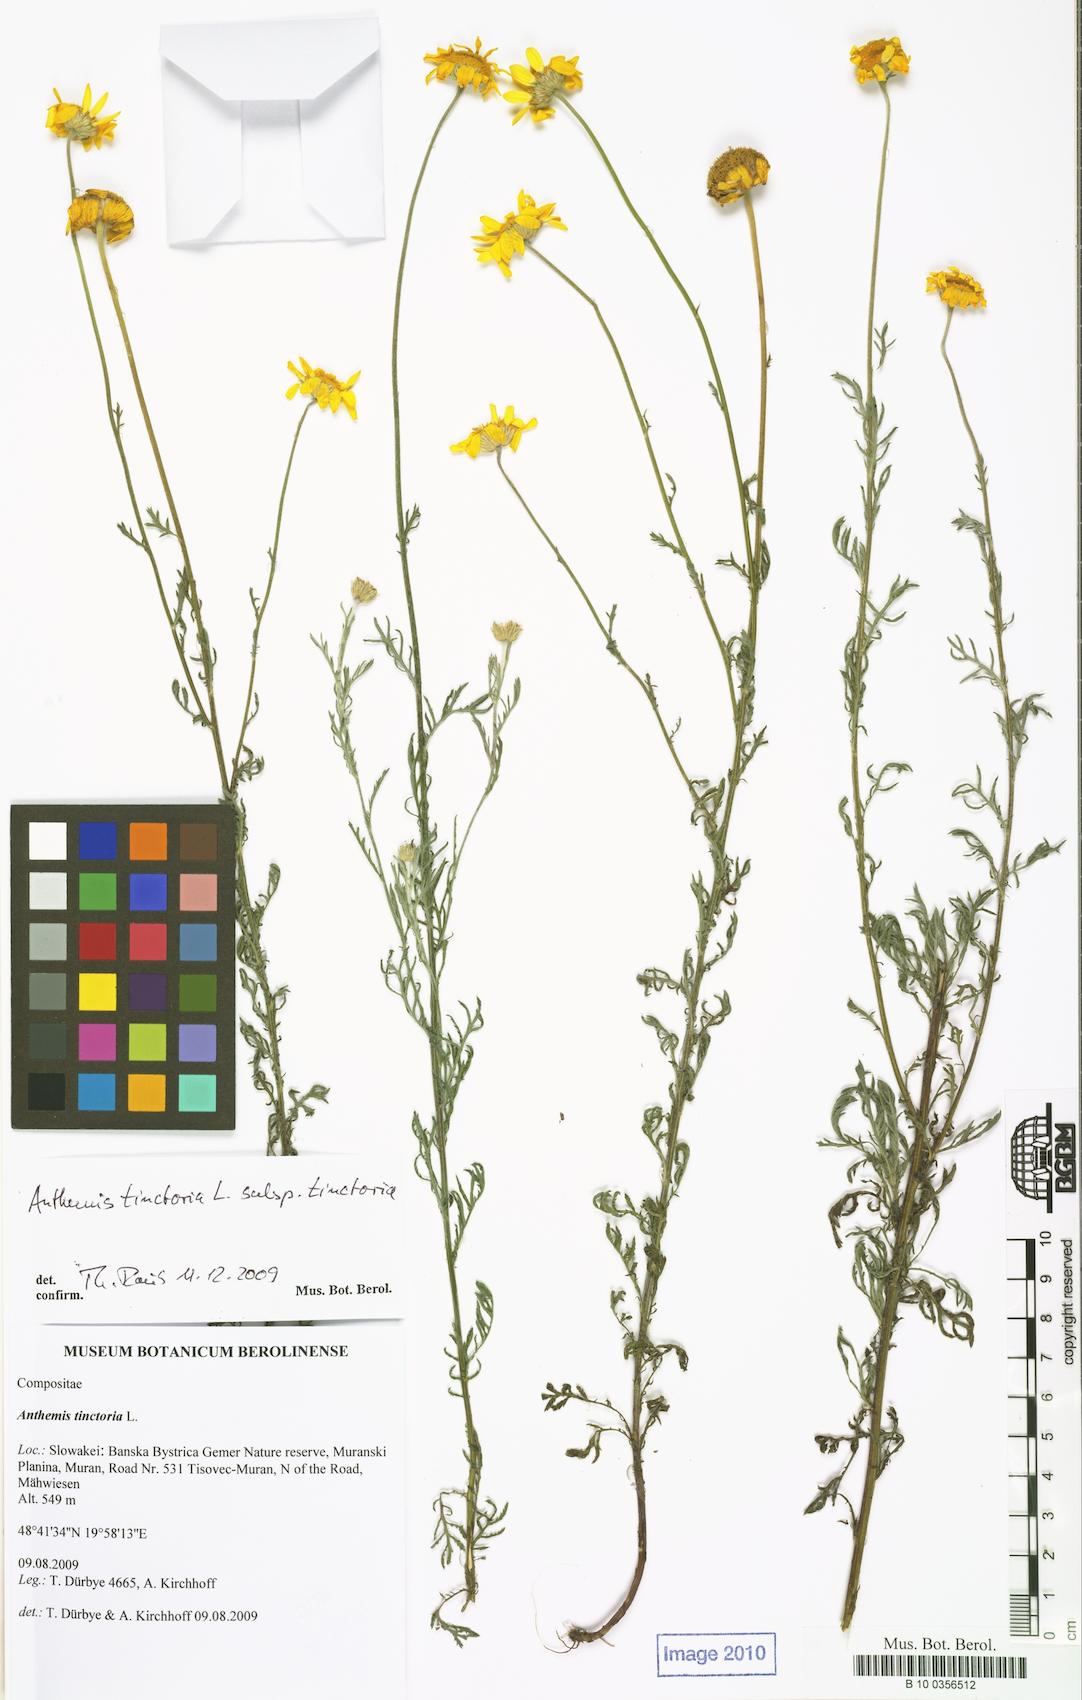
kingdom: Plantae
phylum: Tracheophyta
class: Magnoliopsida
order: Asterales
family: Asteraceae
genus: Cota
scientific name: Cota tinctoria
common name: Golden chamomile
